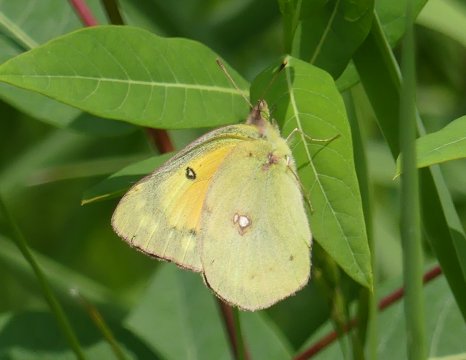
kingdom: Animalia
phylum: Arthropoda
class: Insecta
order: Lepidoptera
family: Pieridae
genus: Colias
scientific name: Colias eurytheme
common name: Orange Sulphur
